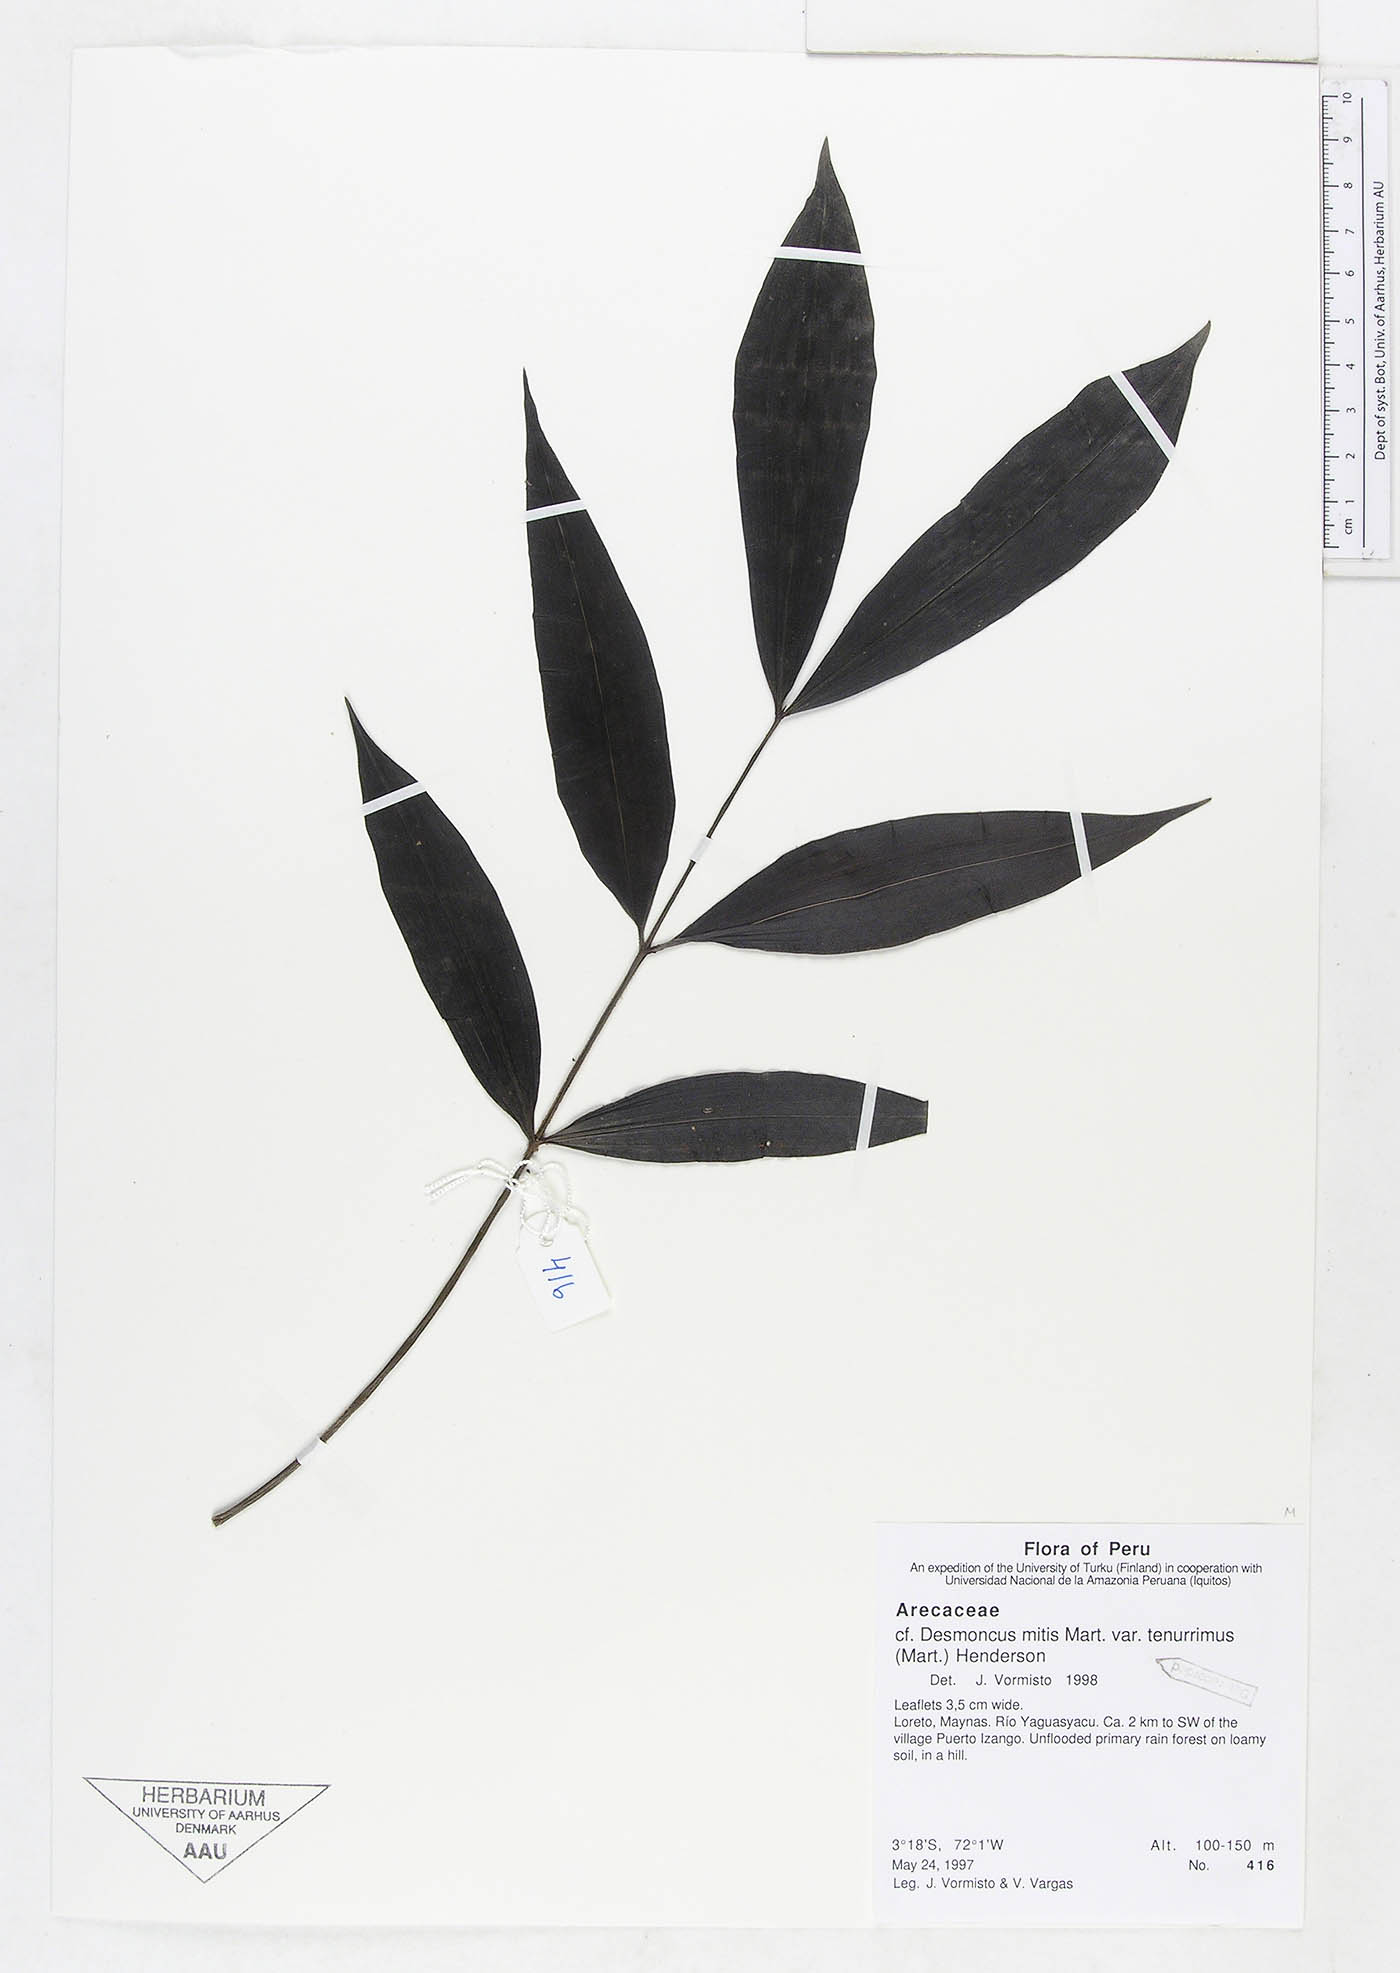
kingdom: Plantae
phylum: Tracheophyta
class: Liliopsida
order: Arecales
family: Arecaceae
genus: Desmoncus
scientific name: Desmoncus vacivus
